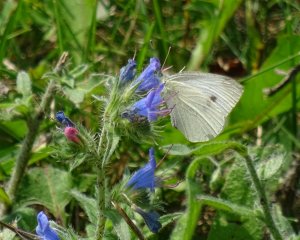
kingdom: Animalia
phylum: Arthropoda
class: Insecta
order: Lepidoptera
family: Pieridae
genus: Pieris
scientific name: Pieris rapae
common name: Cabbage White
